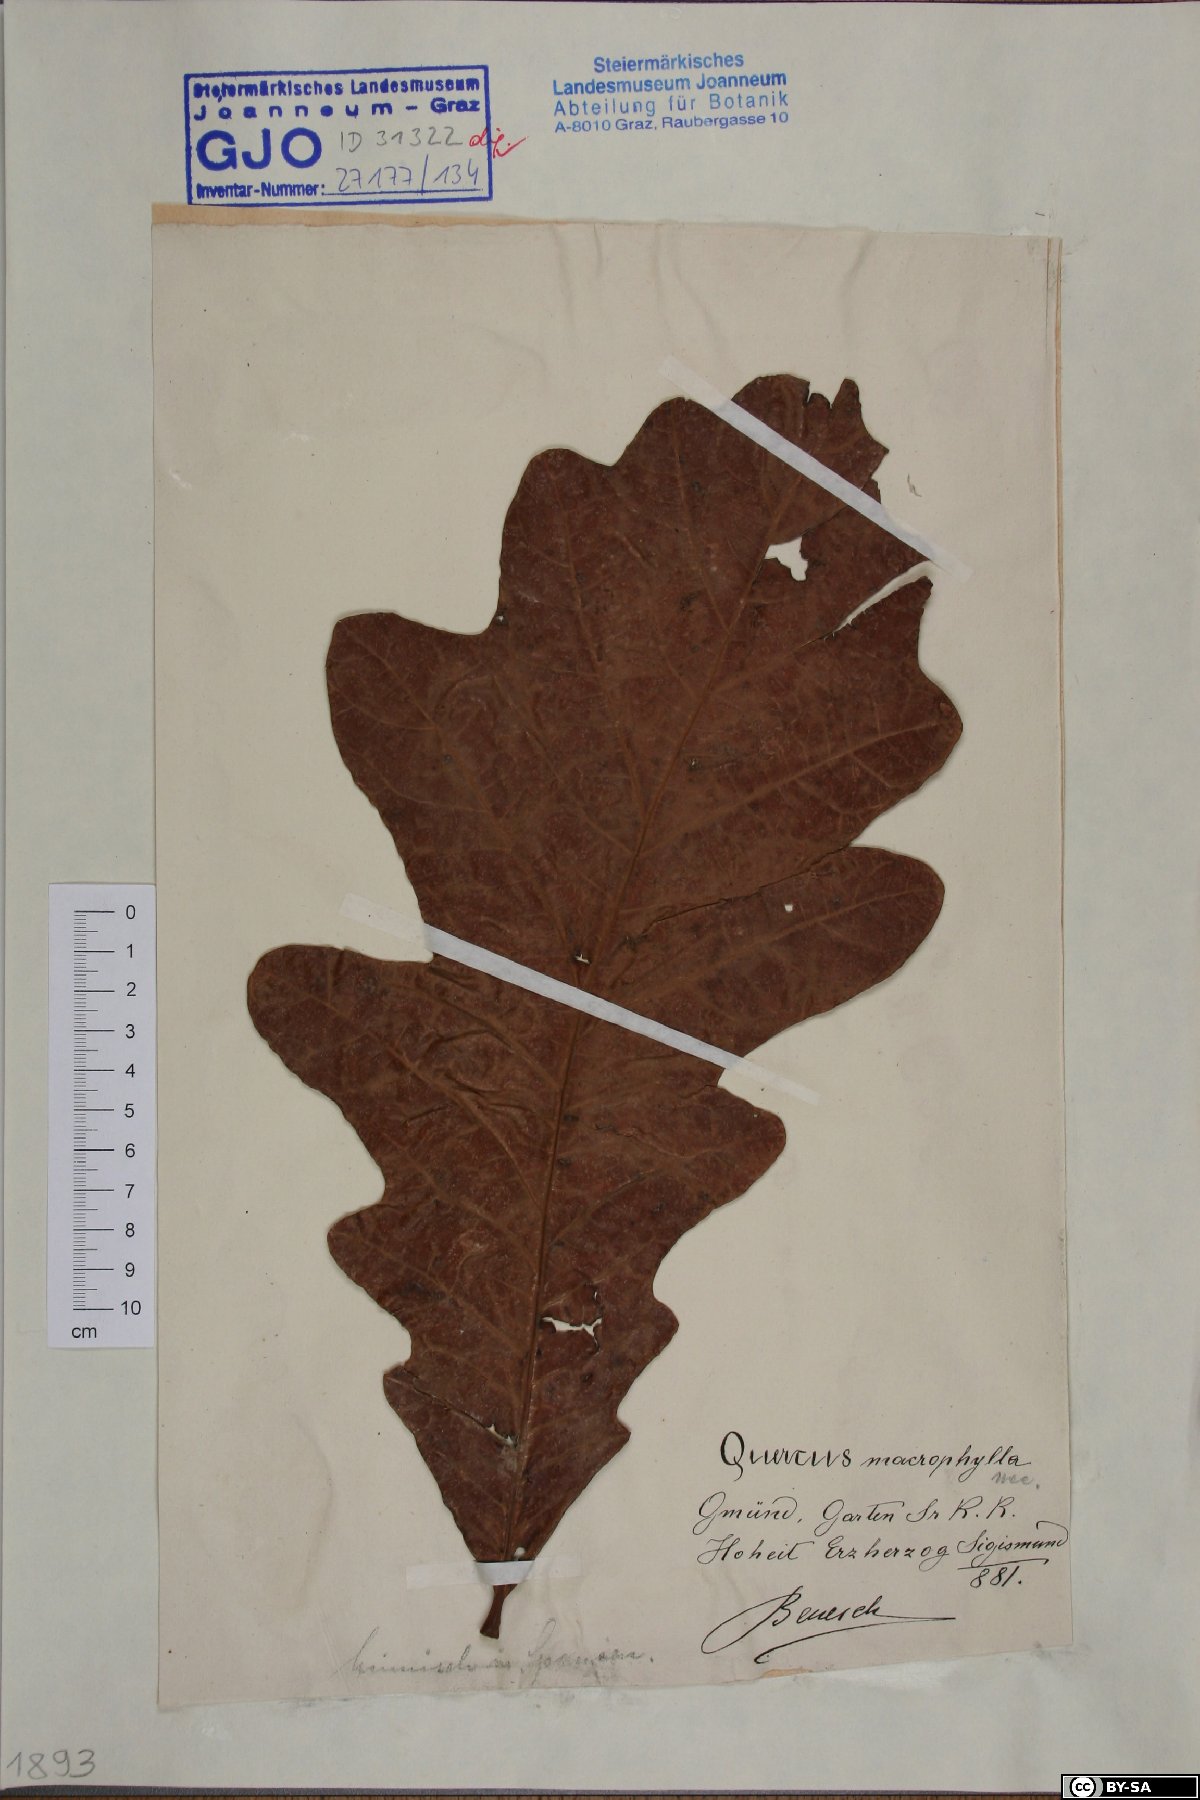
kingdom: Plantae
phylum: Tracheophyta
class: Magnoliopsida
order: Fagales
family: Fagaceae
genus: Quercus
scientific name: Quercus magnoliifolia
